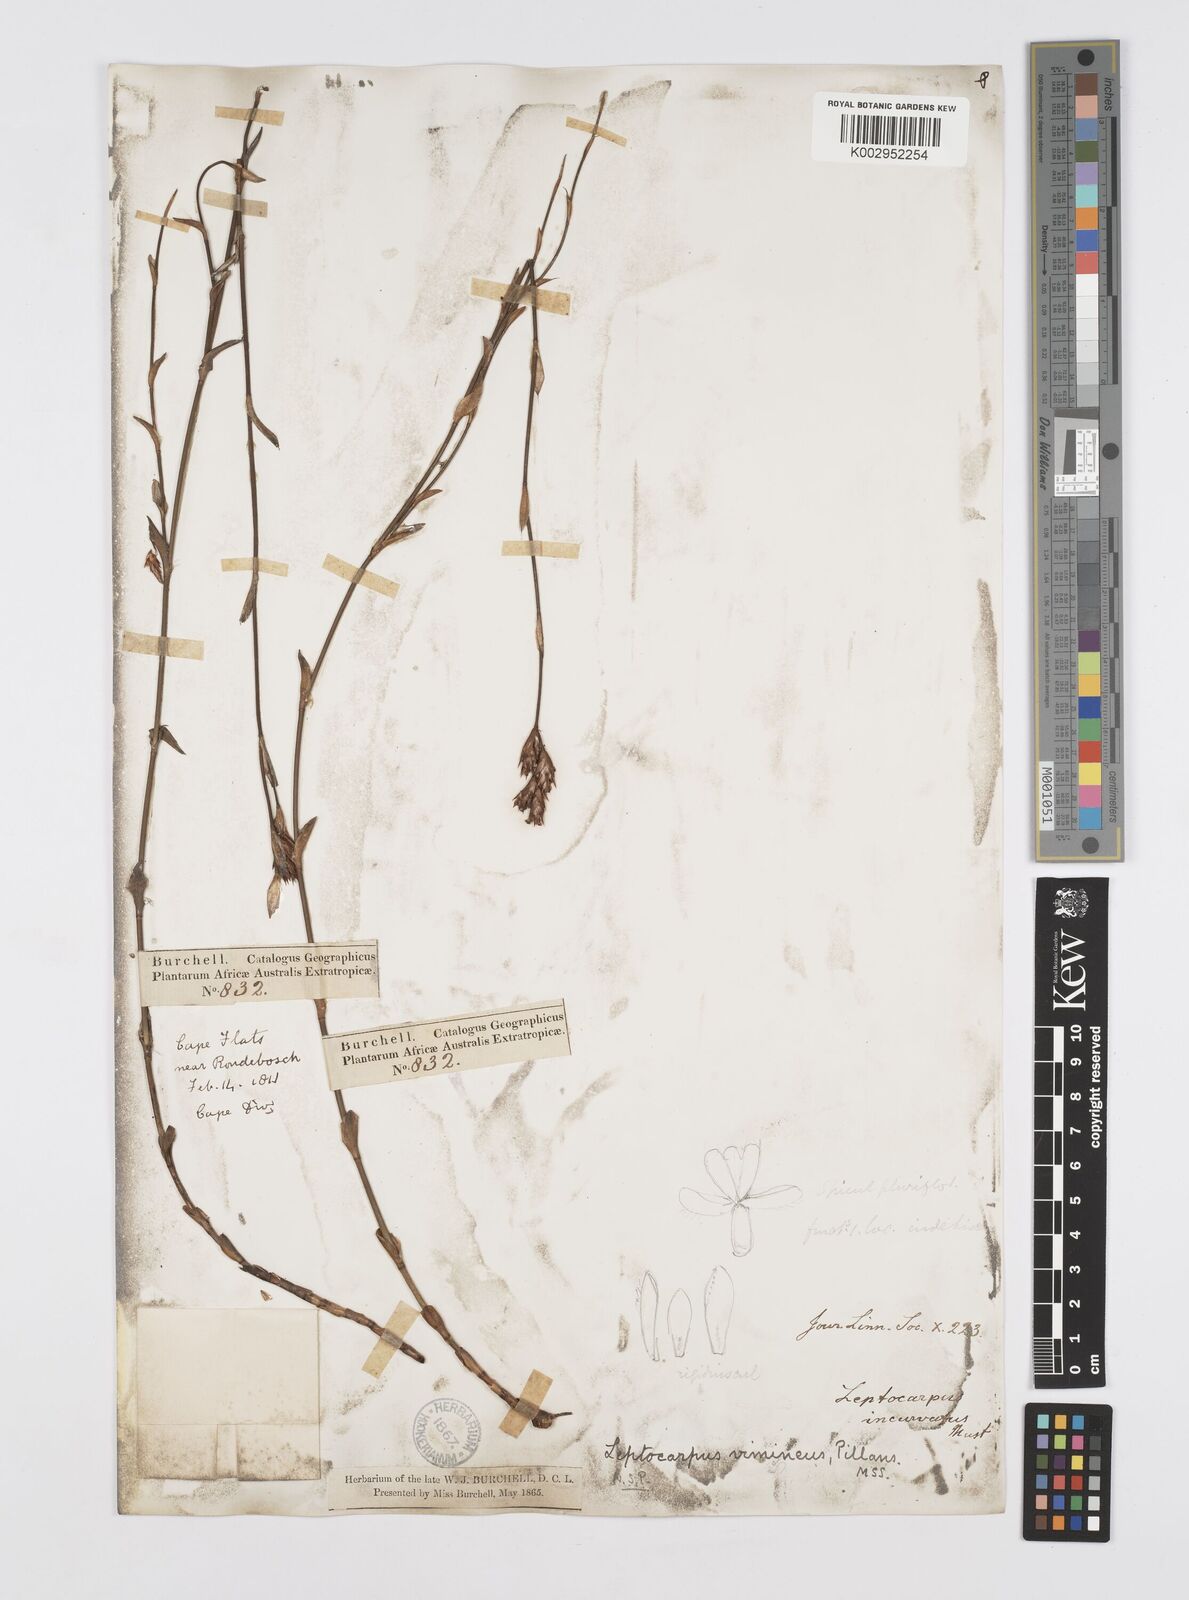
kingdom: Plantae
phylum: Tracheophyta
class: Liliopsida
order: Poales
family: Restionaceae
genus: Restio
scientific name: Restio vimineus
